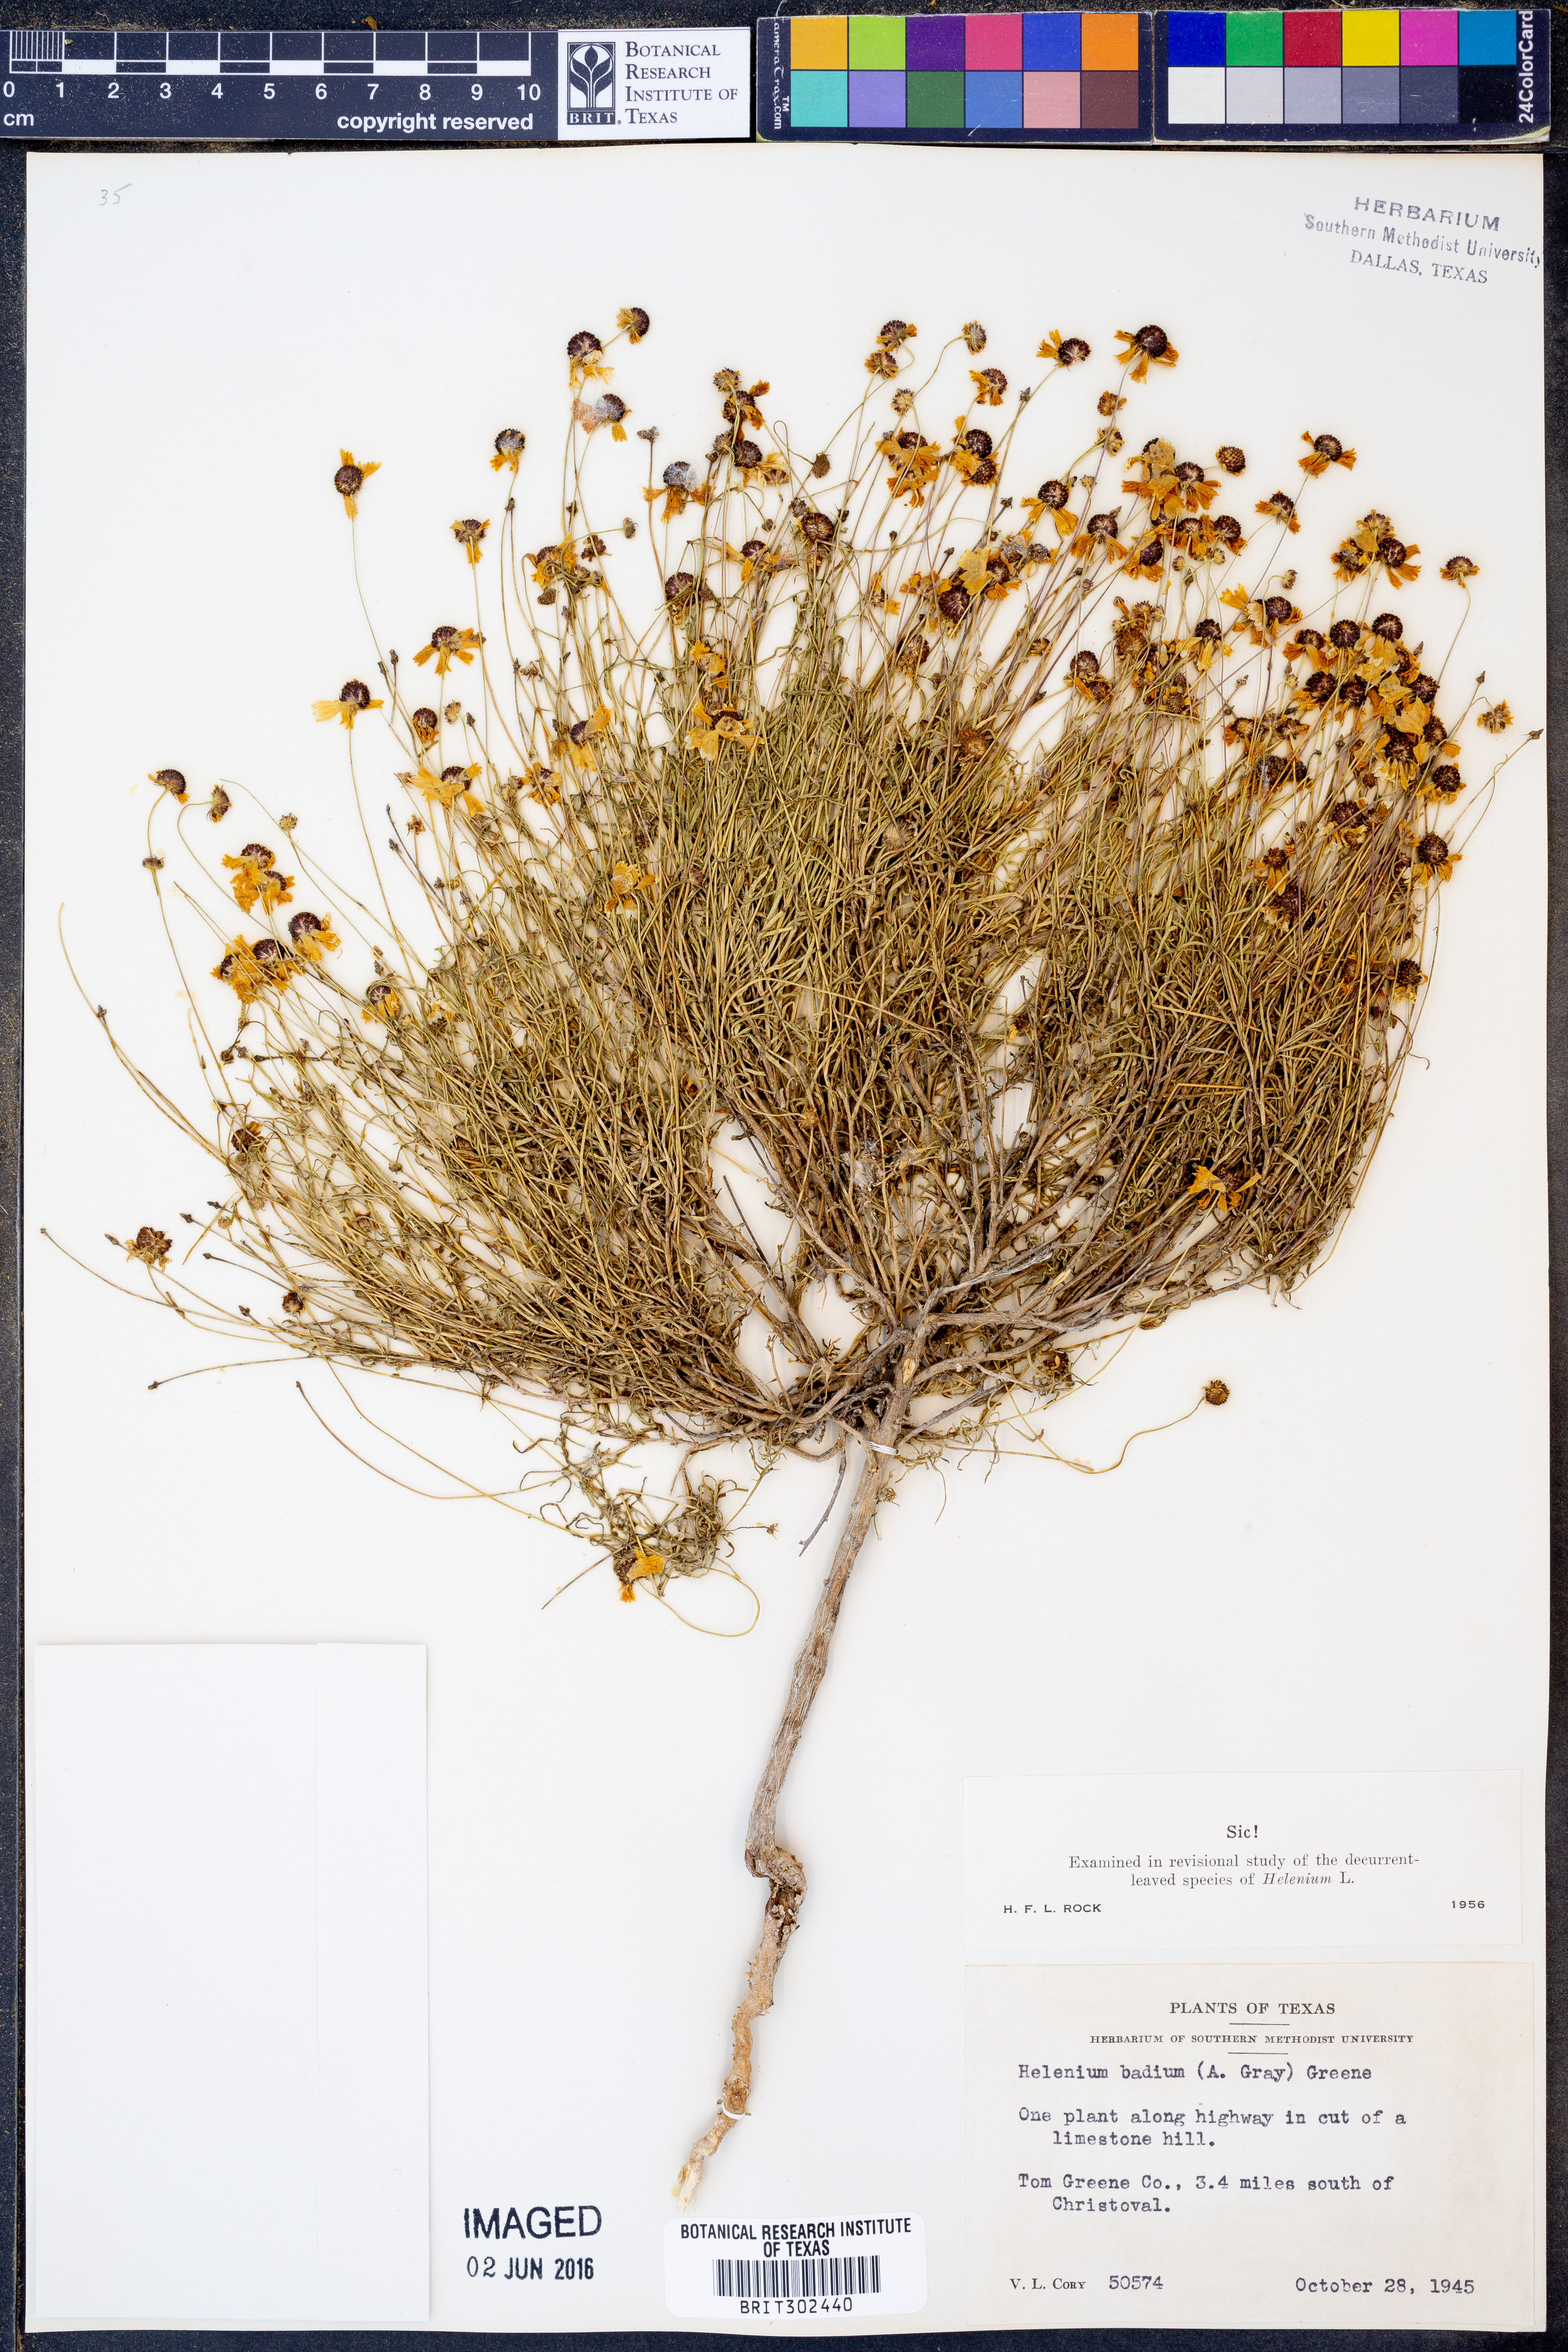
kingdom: Plantae
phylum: Tracheophyta
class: Magnoliopsida
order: Asterales
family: Asteraceae
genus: Helenium
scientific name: Helenium amarum
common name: Bitter sneezeweed
